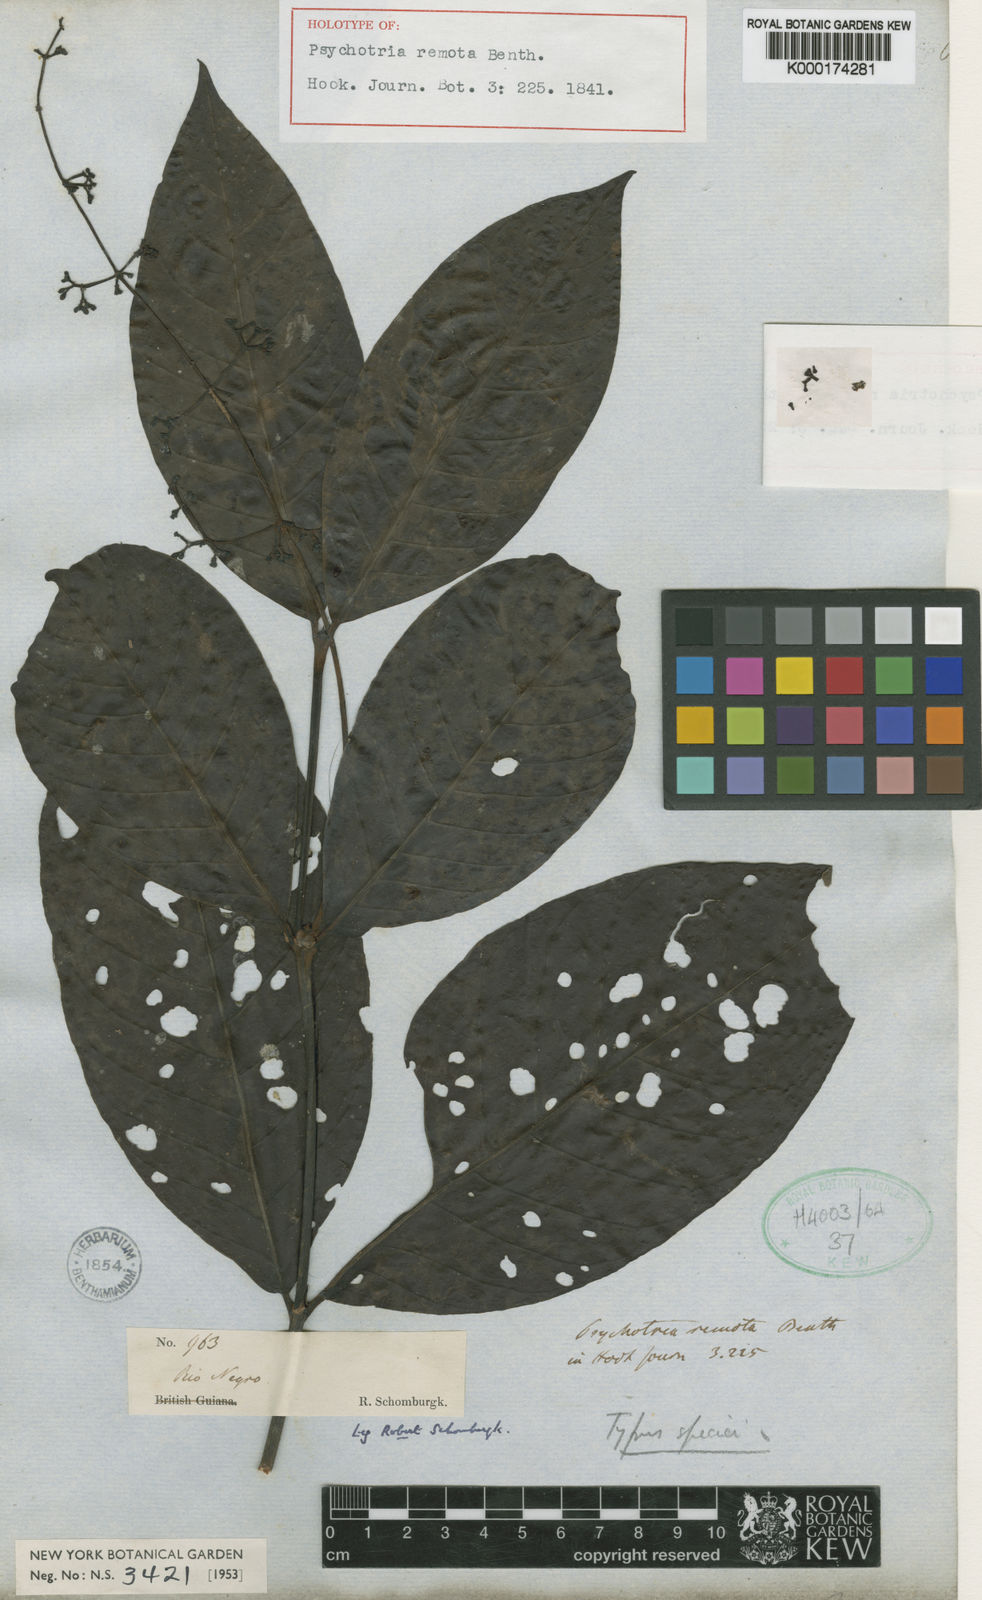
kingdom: Plantae
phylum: Tracheophyta
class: Magnoliopsida
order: Gentianales
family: Rubiaceae
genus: Psychotria
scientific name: Psychotria remota
